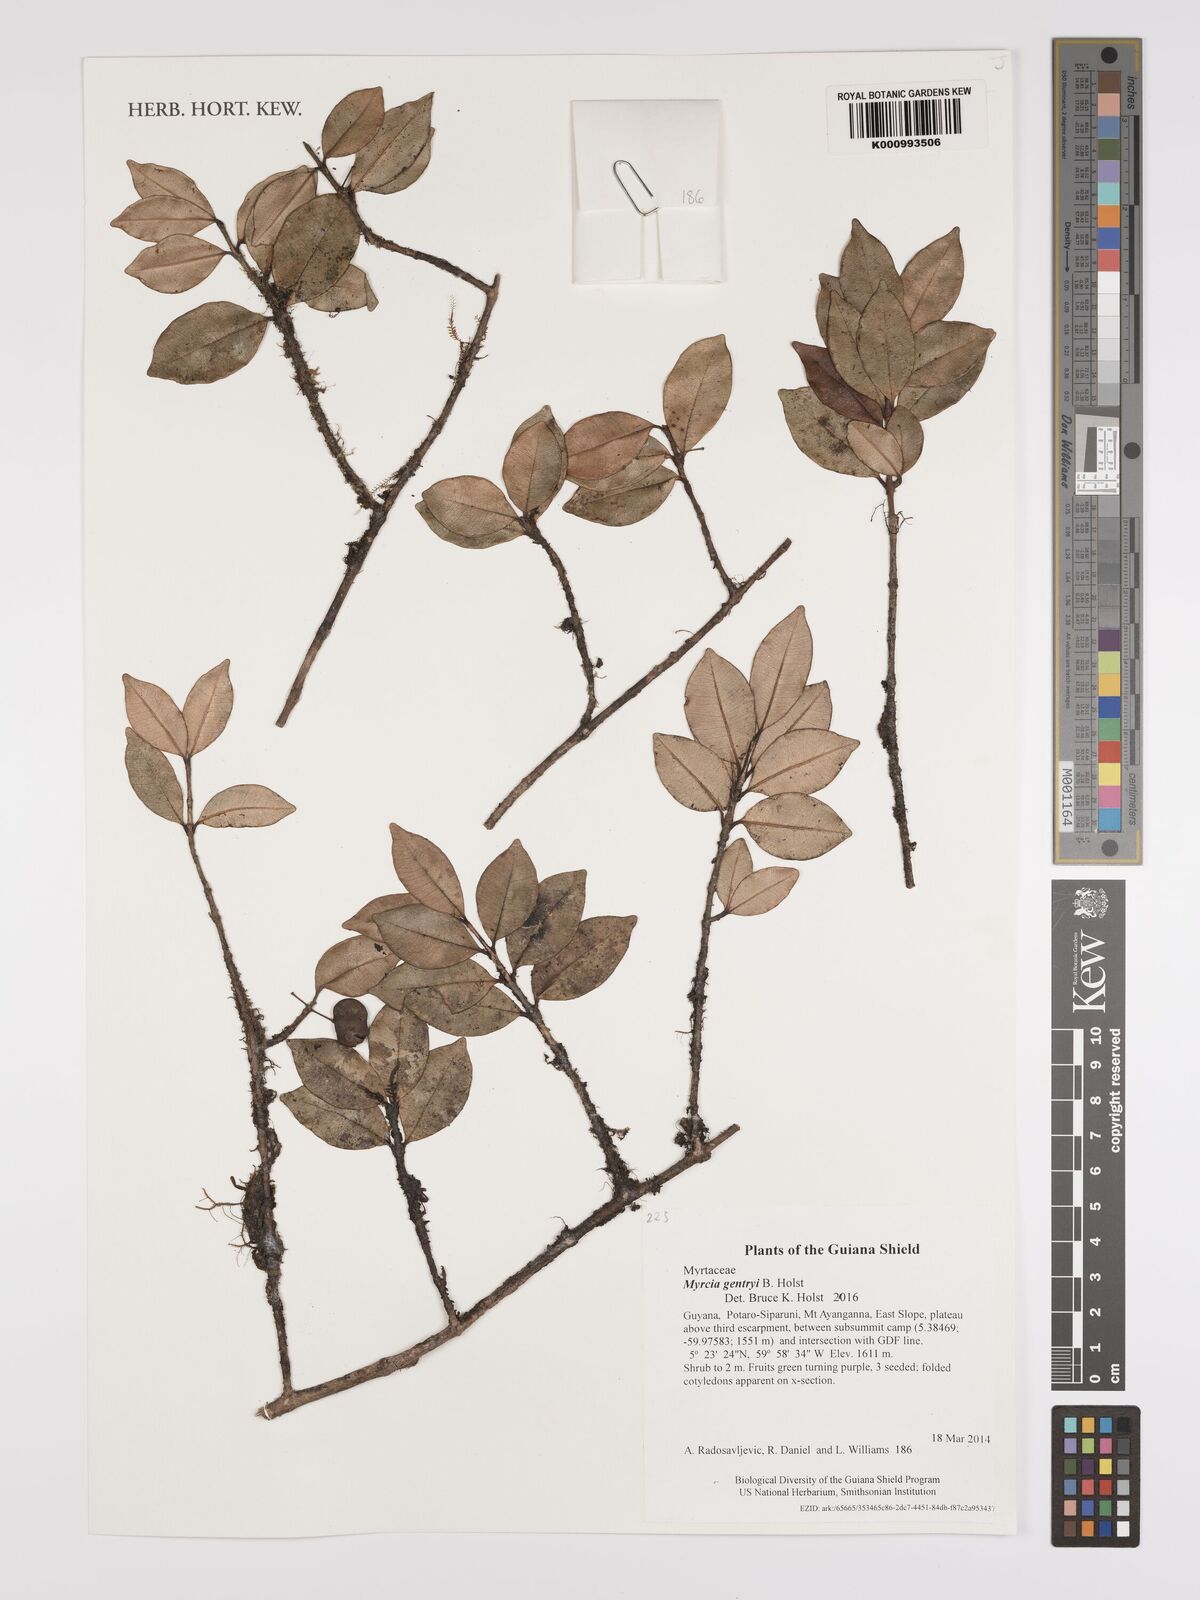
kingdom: Plantae
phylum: Tracheophyta
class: Magnoliopsida
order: Myrtales
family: Myrtaceae
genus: Myrcia
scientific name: Myrcia gentryi
